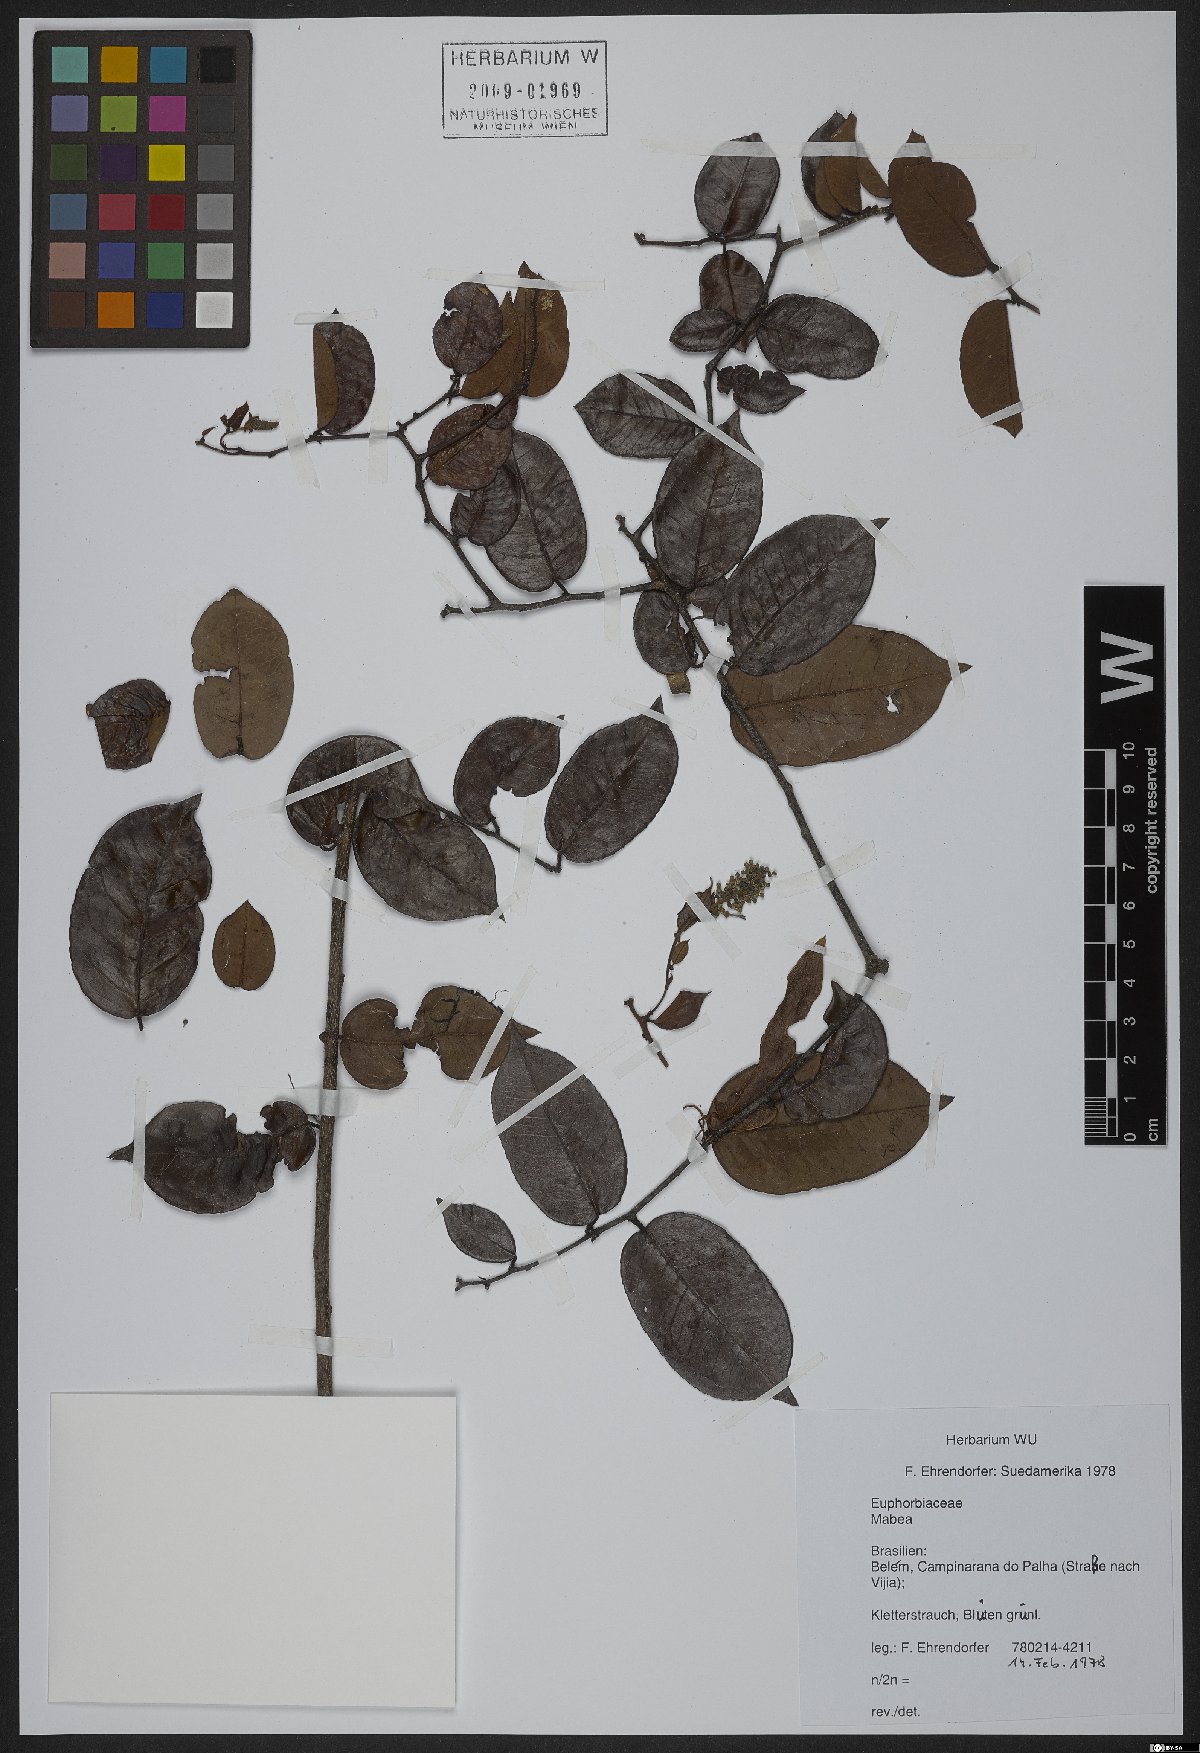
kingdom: Plantae
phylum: Tracheophyta
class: Magnoliopsida
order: Malpighiales
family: Euphorbiaceae
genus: Mabea
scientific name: Mabea
